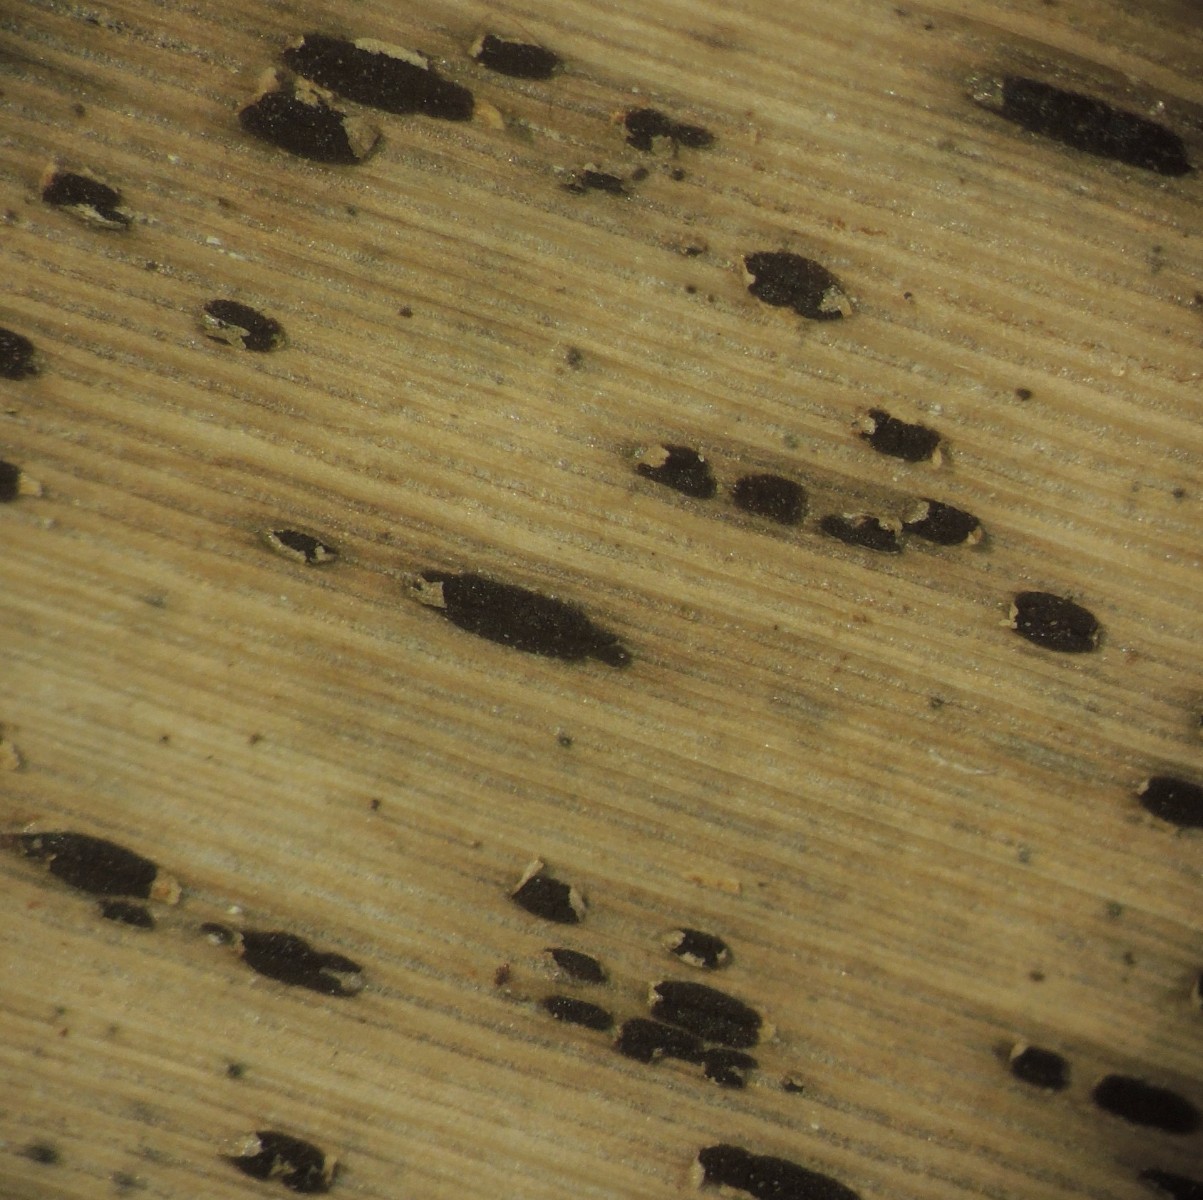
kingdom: Fungi
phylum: Basidiomycota
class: Pucciniomycetes
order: Pucciniales
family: Pucciniaceae
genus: Puccinia
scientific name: Puccinia magnusiana
